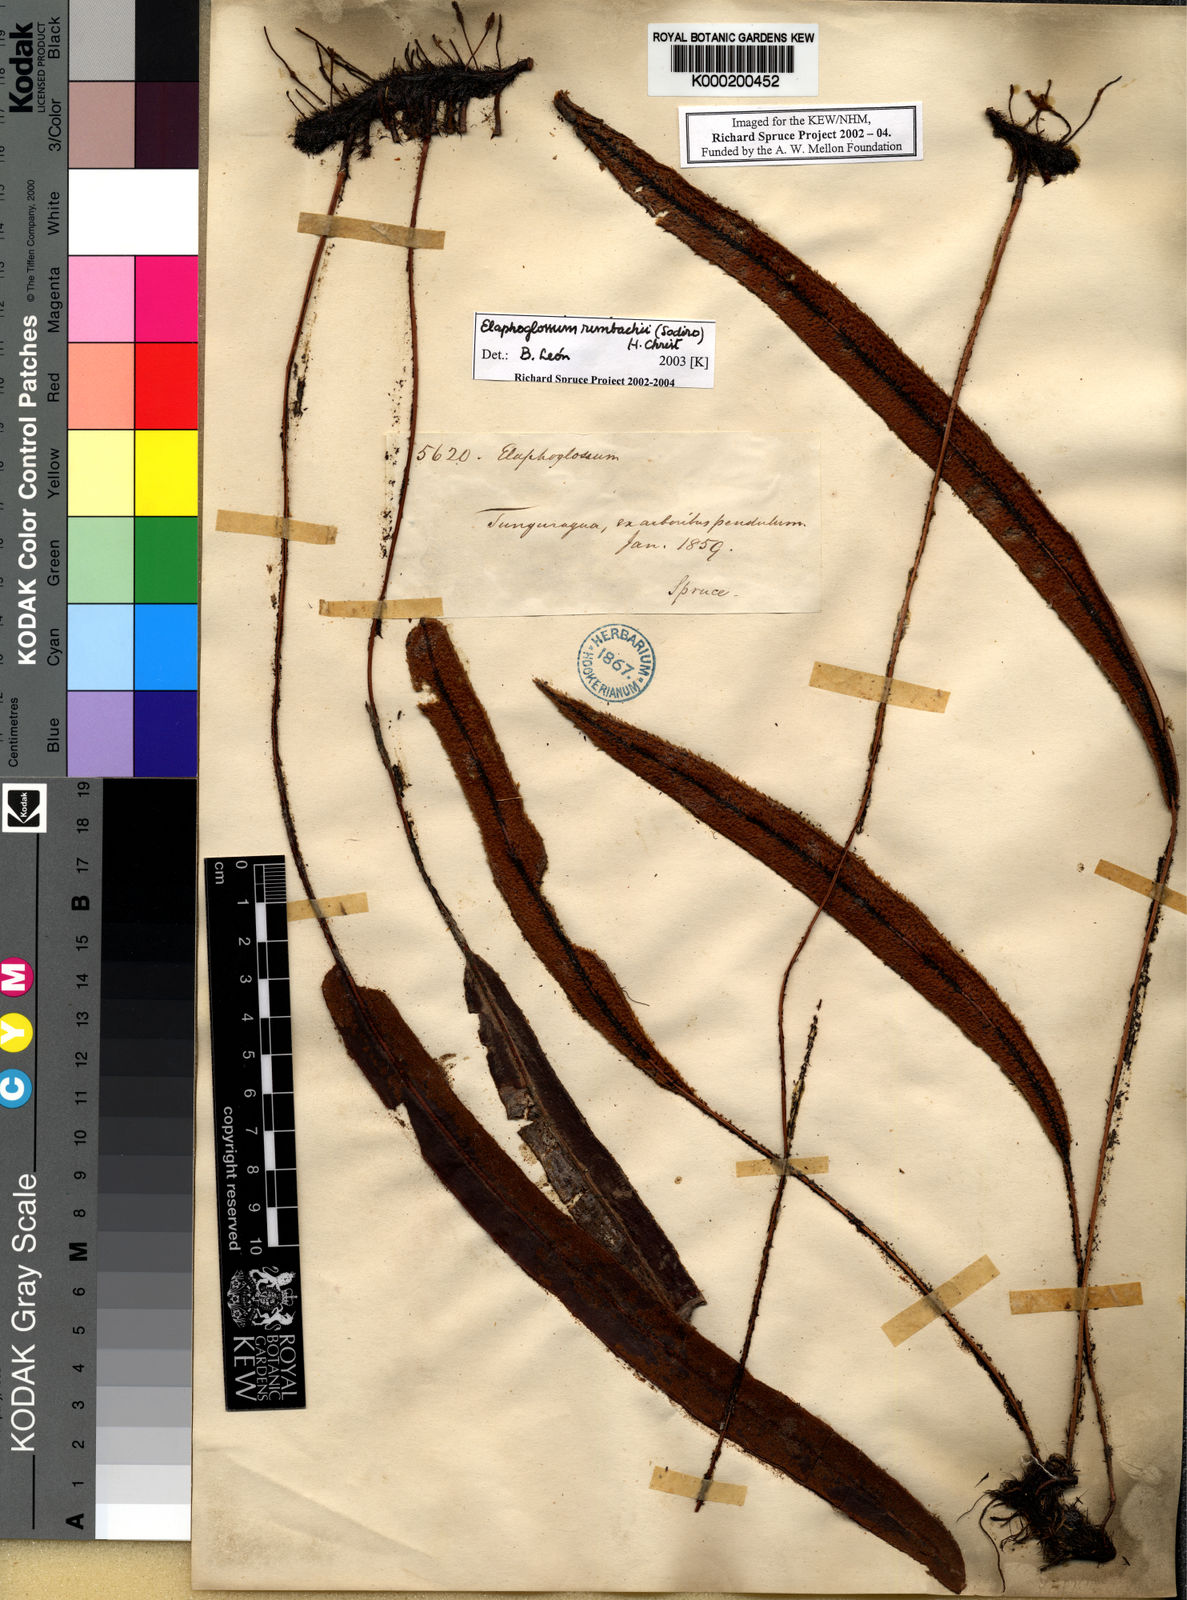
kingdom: Plantae
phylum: Tracheophyta
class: Polypodiopsida
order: Polypodiales
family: Dryopteridaceae
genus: Elaphoglossum
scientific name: Elaphoglossum rimbachii
